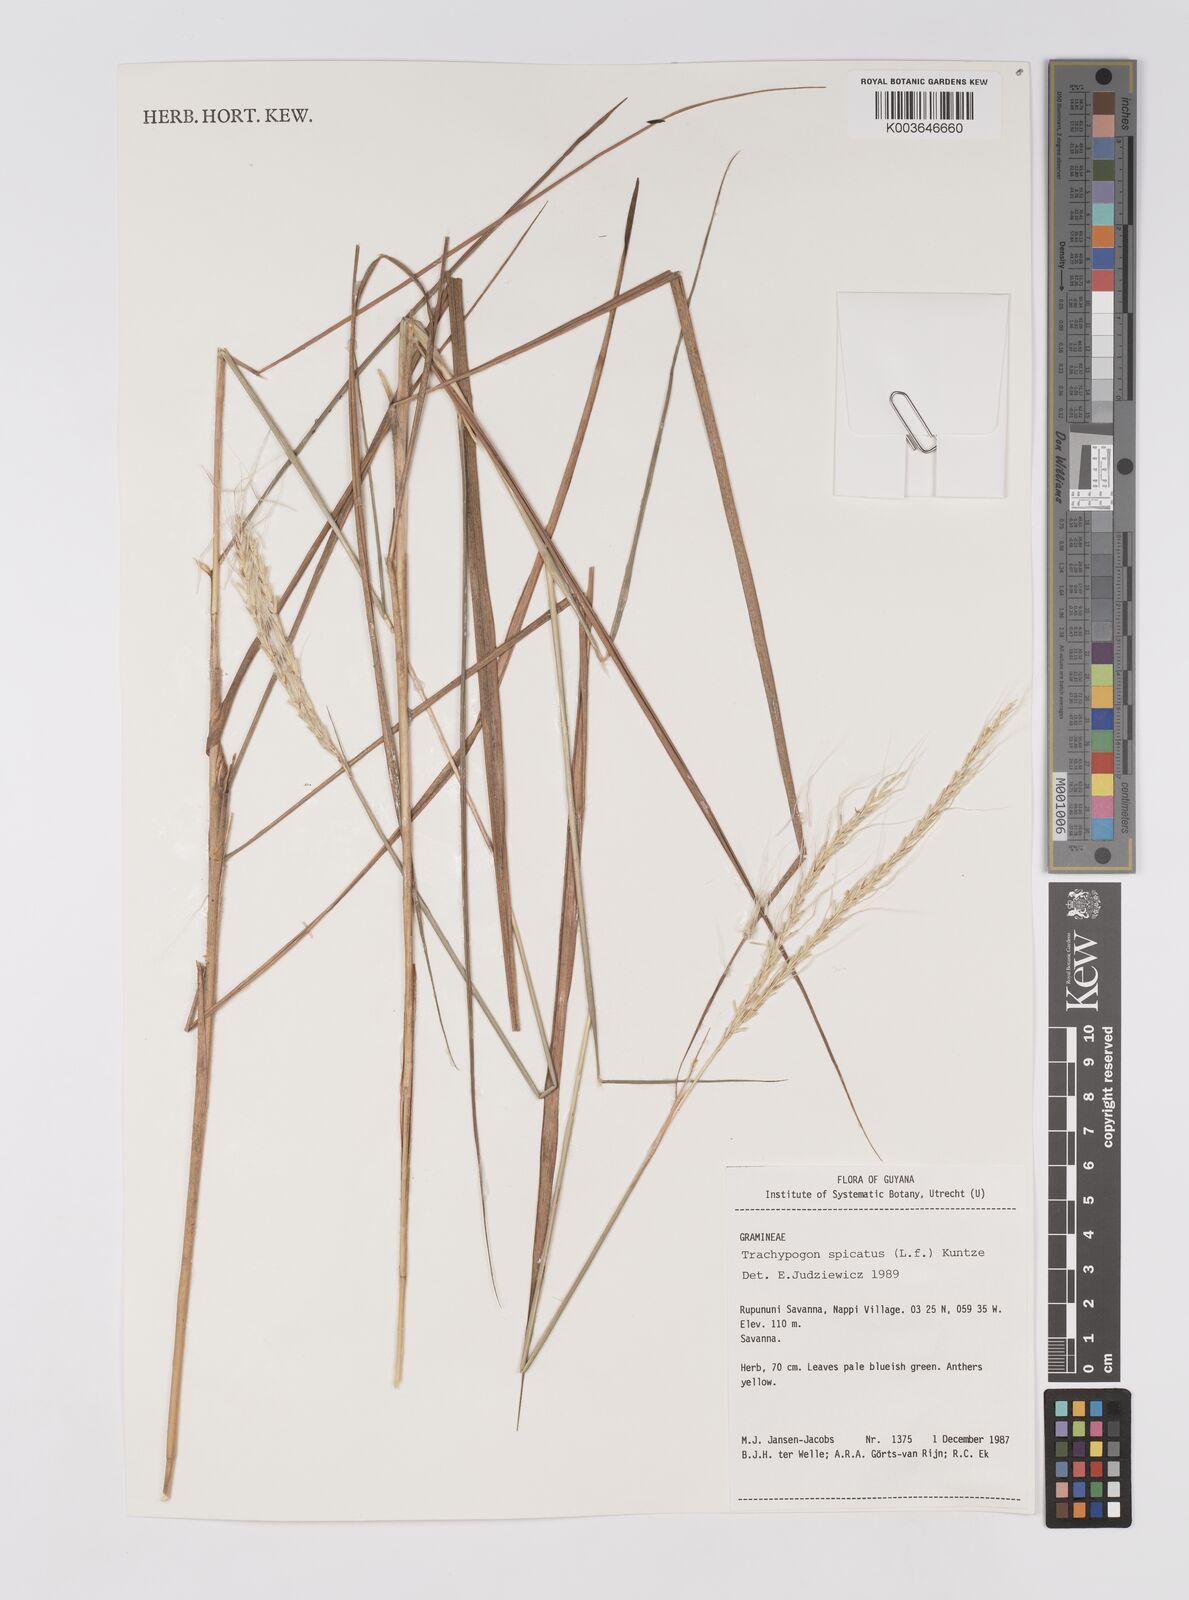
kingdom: Plantae
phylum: Tracheophyta
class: Liliopsida
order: Poales
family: Poaceae
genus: Trachypogon
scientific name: Trachypogon spicatus
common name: Crinkle-awn
